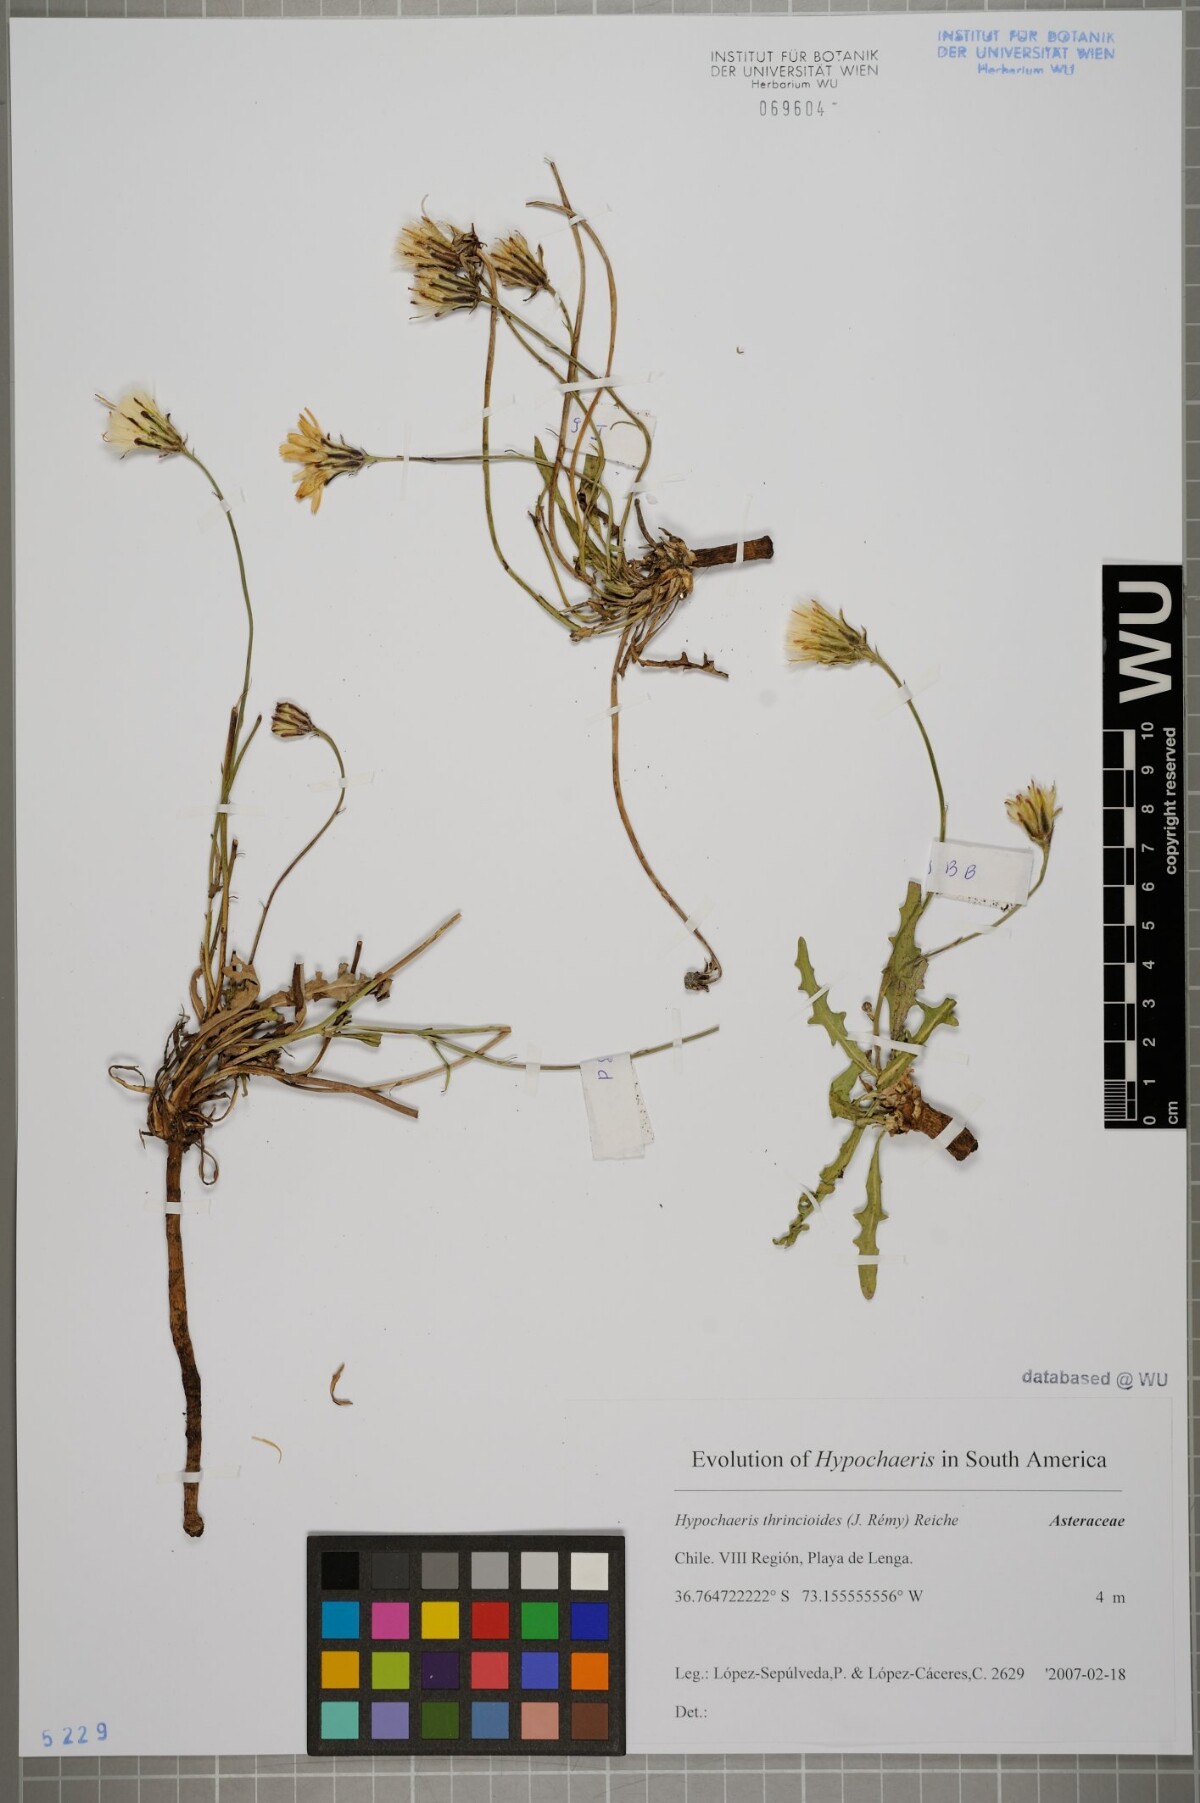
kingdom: Plantae
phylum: Tracheophyta
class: Magnoliopsida
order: Asterales
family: Asteraceae
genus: Hypochaeris
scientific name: Hypochaeris apargioides
